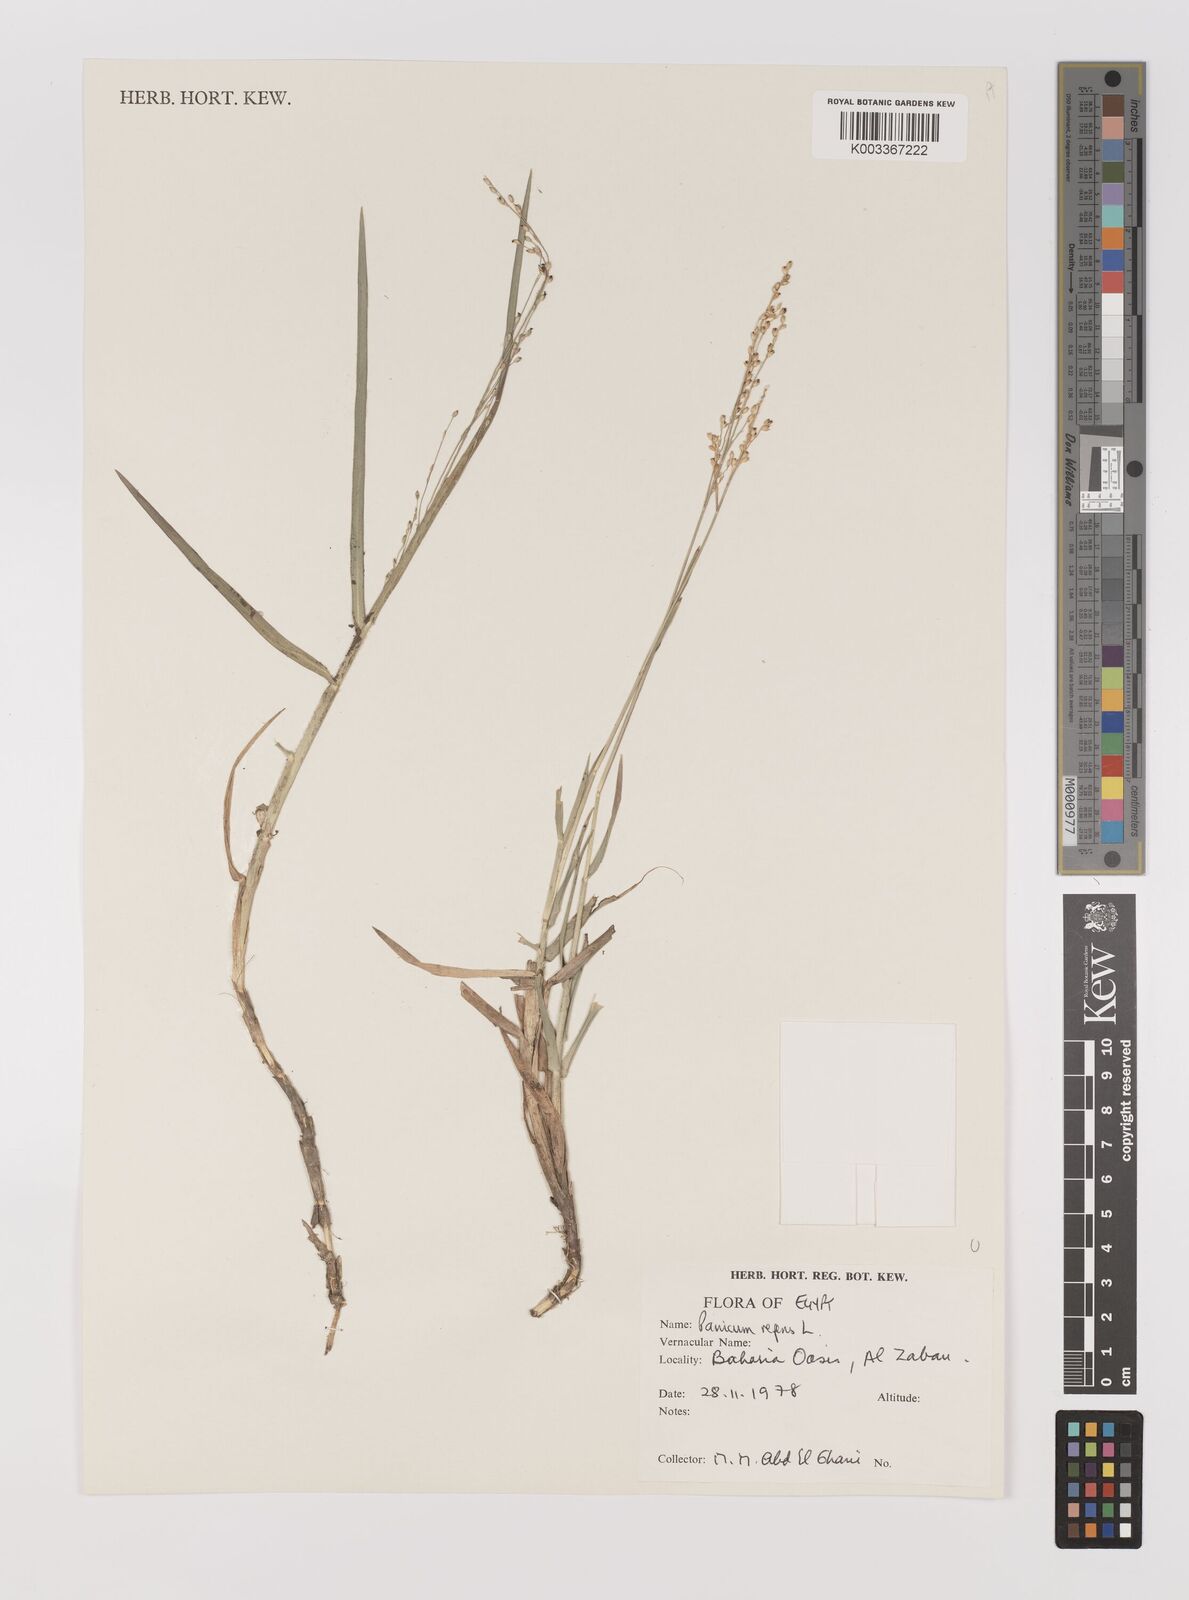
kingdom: Plantae
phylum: Tracheophyta
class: Liliopsida
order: Poales
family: Poaceae
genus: Panicum
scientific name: Panicum repens
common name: Torpedo grass
